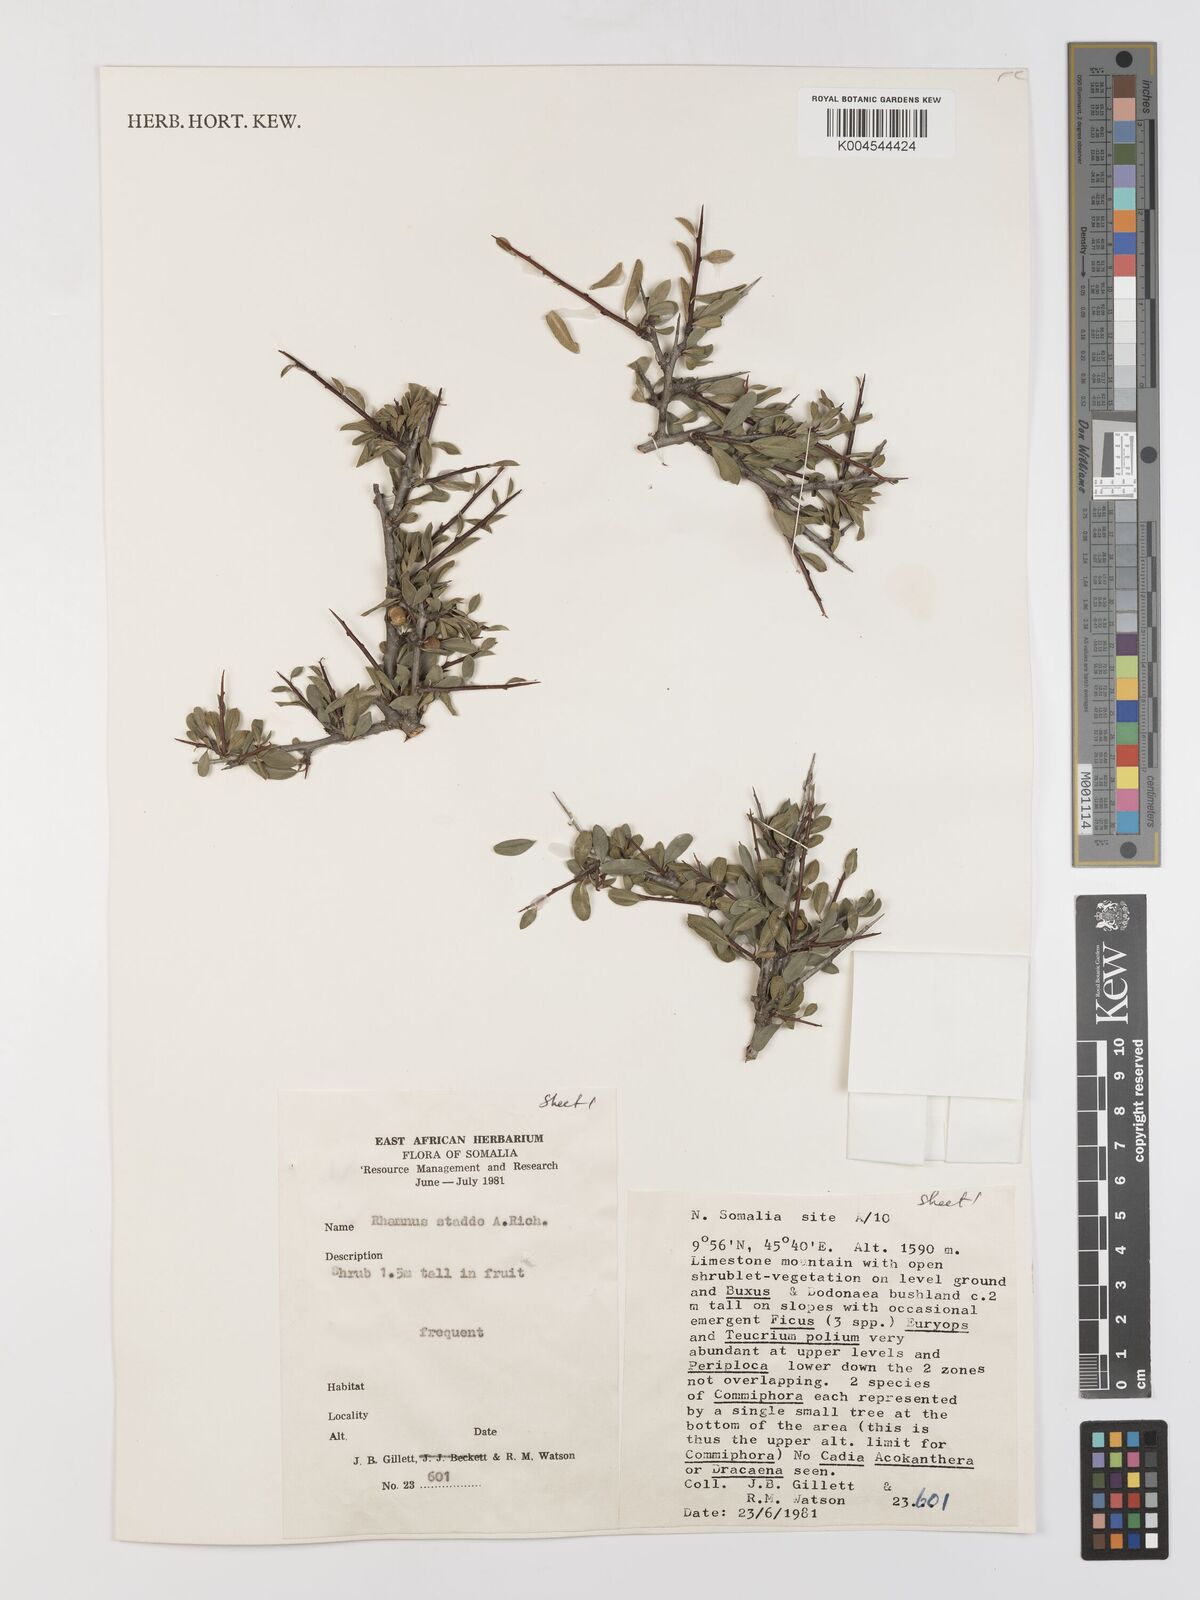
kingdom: Plantae
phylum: Tracheophyta
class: Magnoliopsida
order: Rosales
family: Rhamnaceae
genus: Rhamnus
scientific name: Rhamnus staddo
